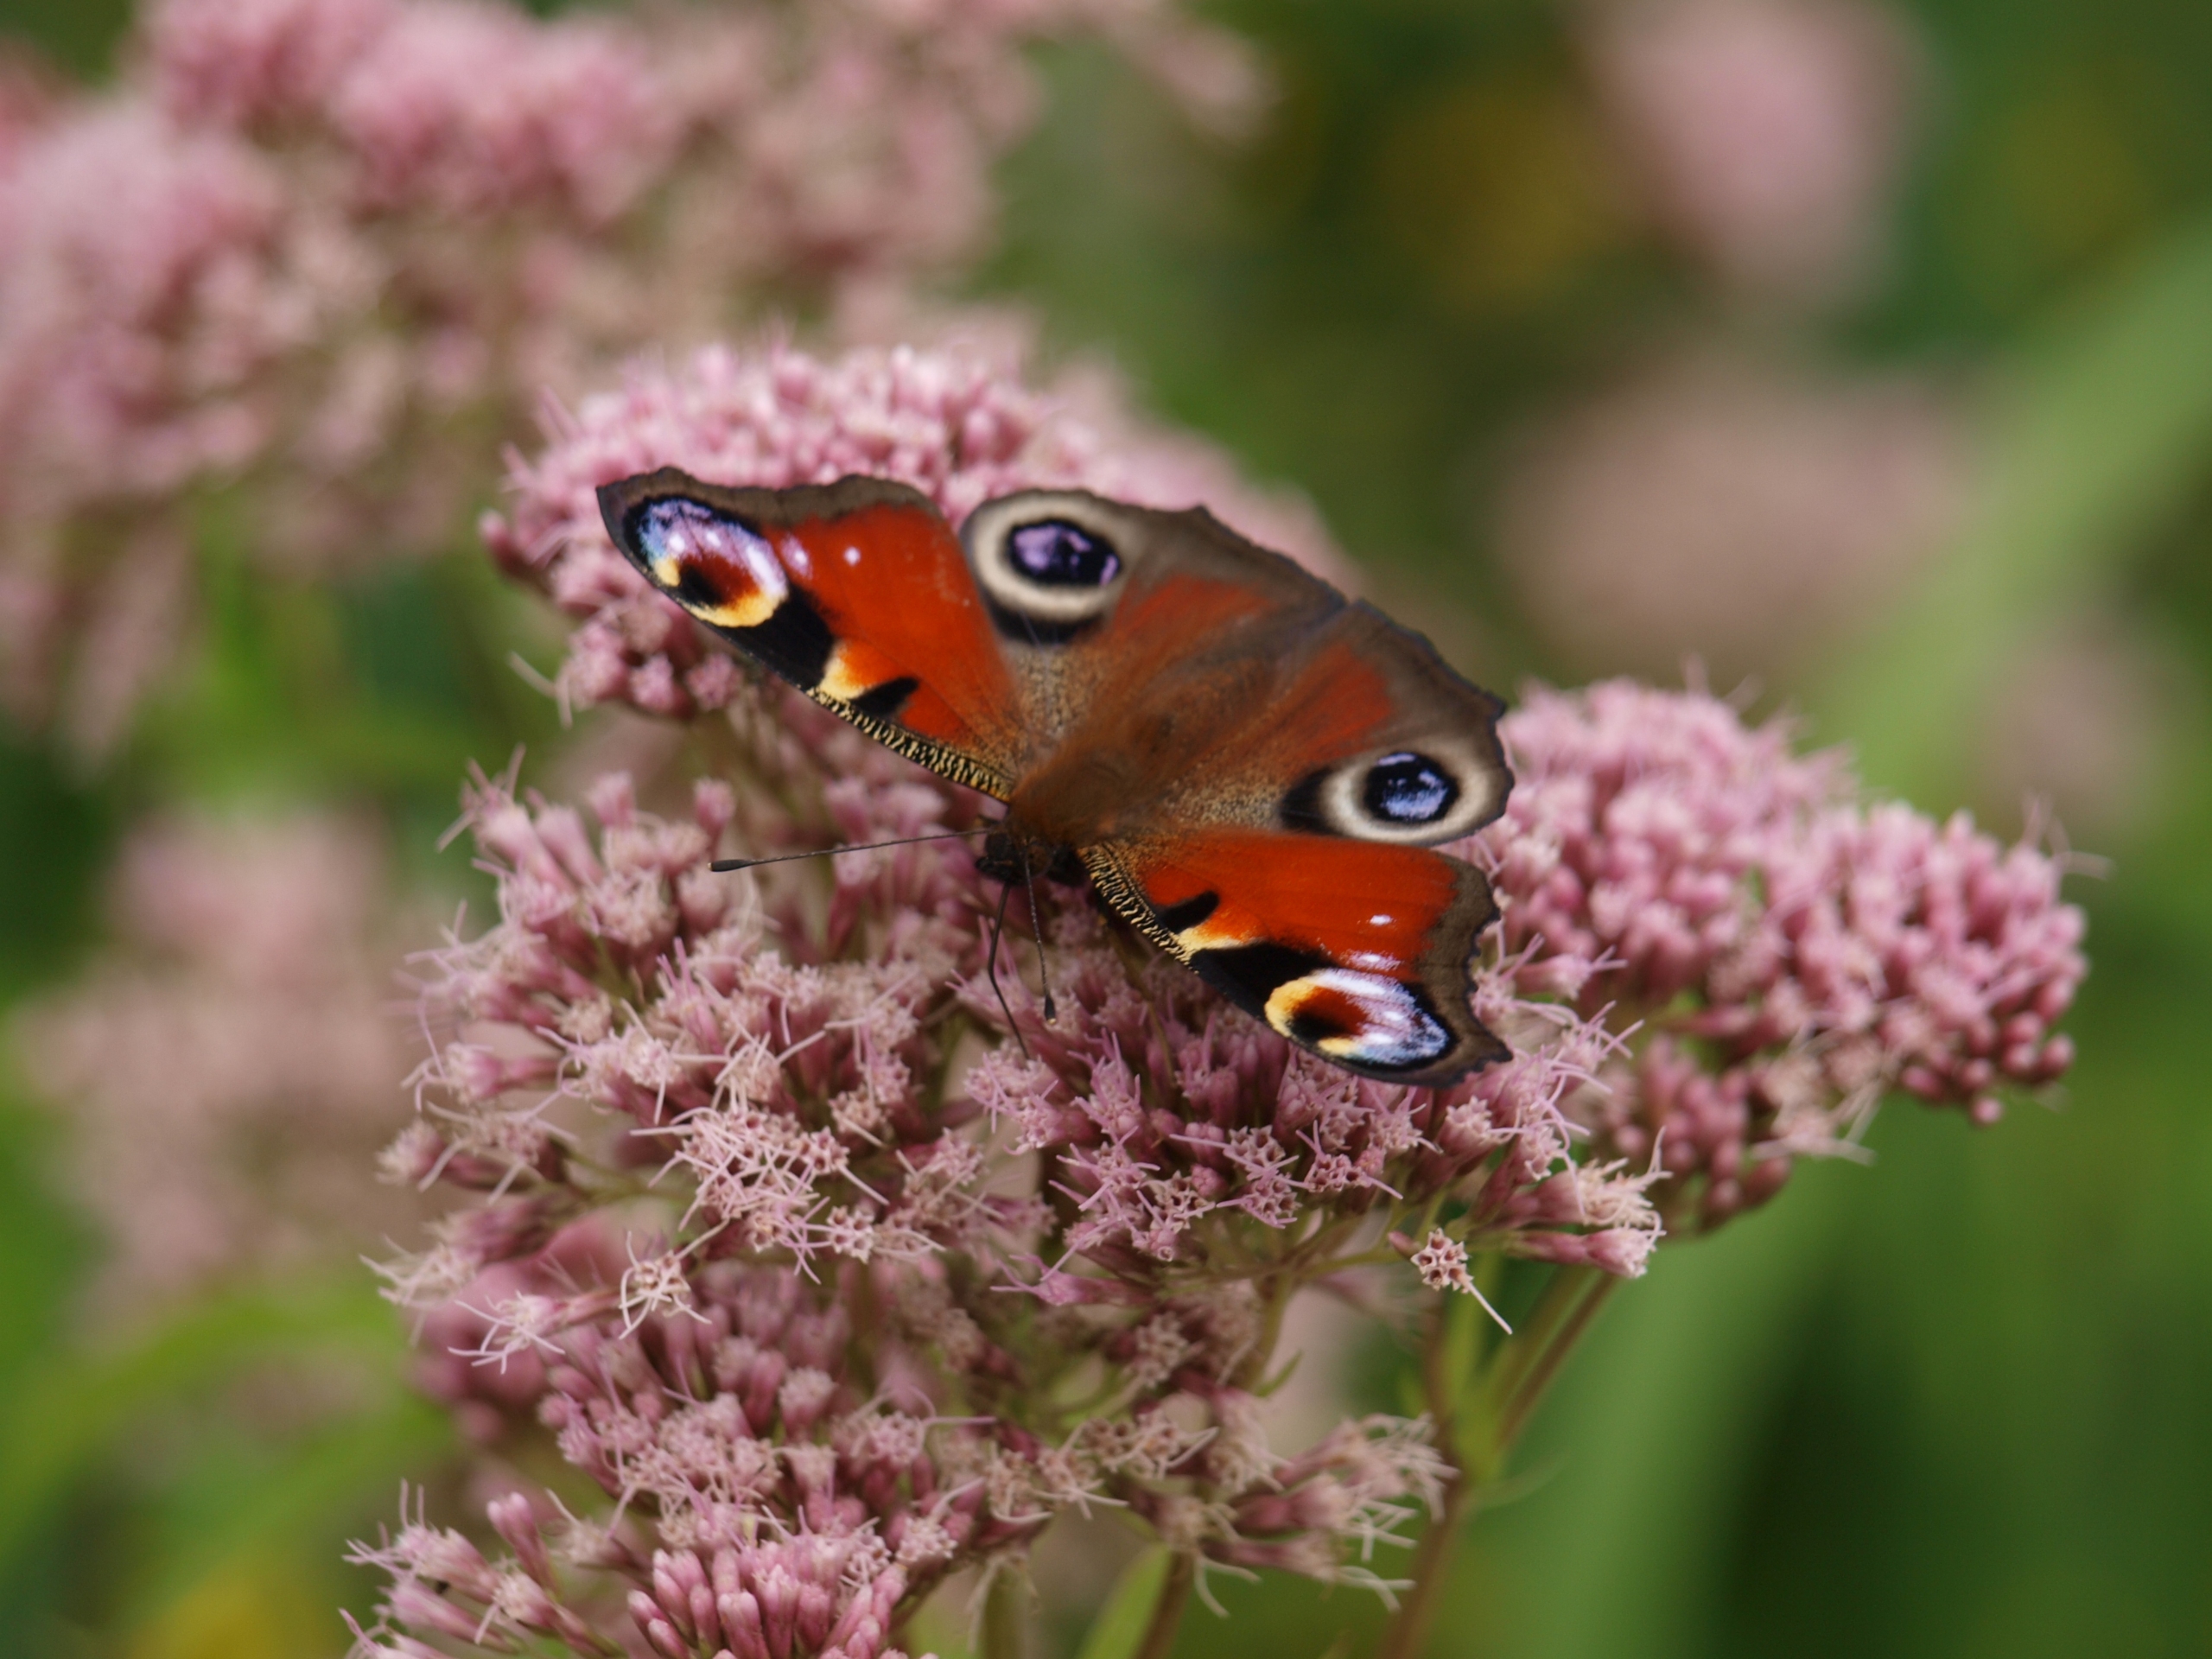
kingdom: Animalia
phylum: Arthropoda
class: Insecta
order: Lepidoptera
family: Nymphalidae
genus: Aglais
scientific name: Aglais io
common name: Dagpåfugleøje
